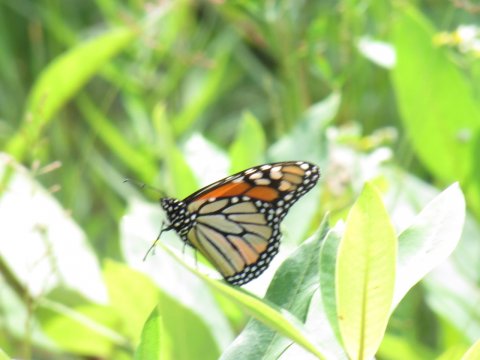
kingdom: Animalia
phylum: Arthropoda
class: Insecta
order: Lepidoptera
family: Nymphalidae
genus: Danaus
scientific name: Danaus plexippus
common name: Monarch
